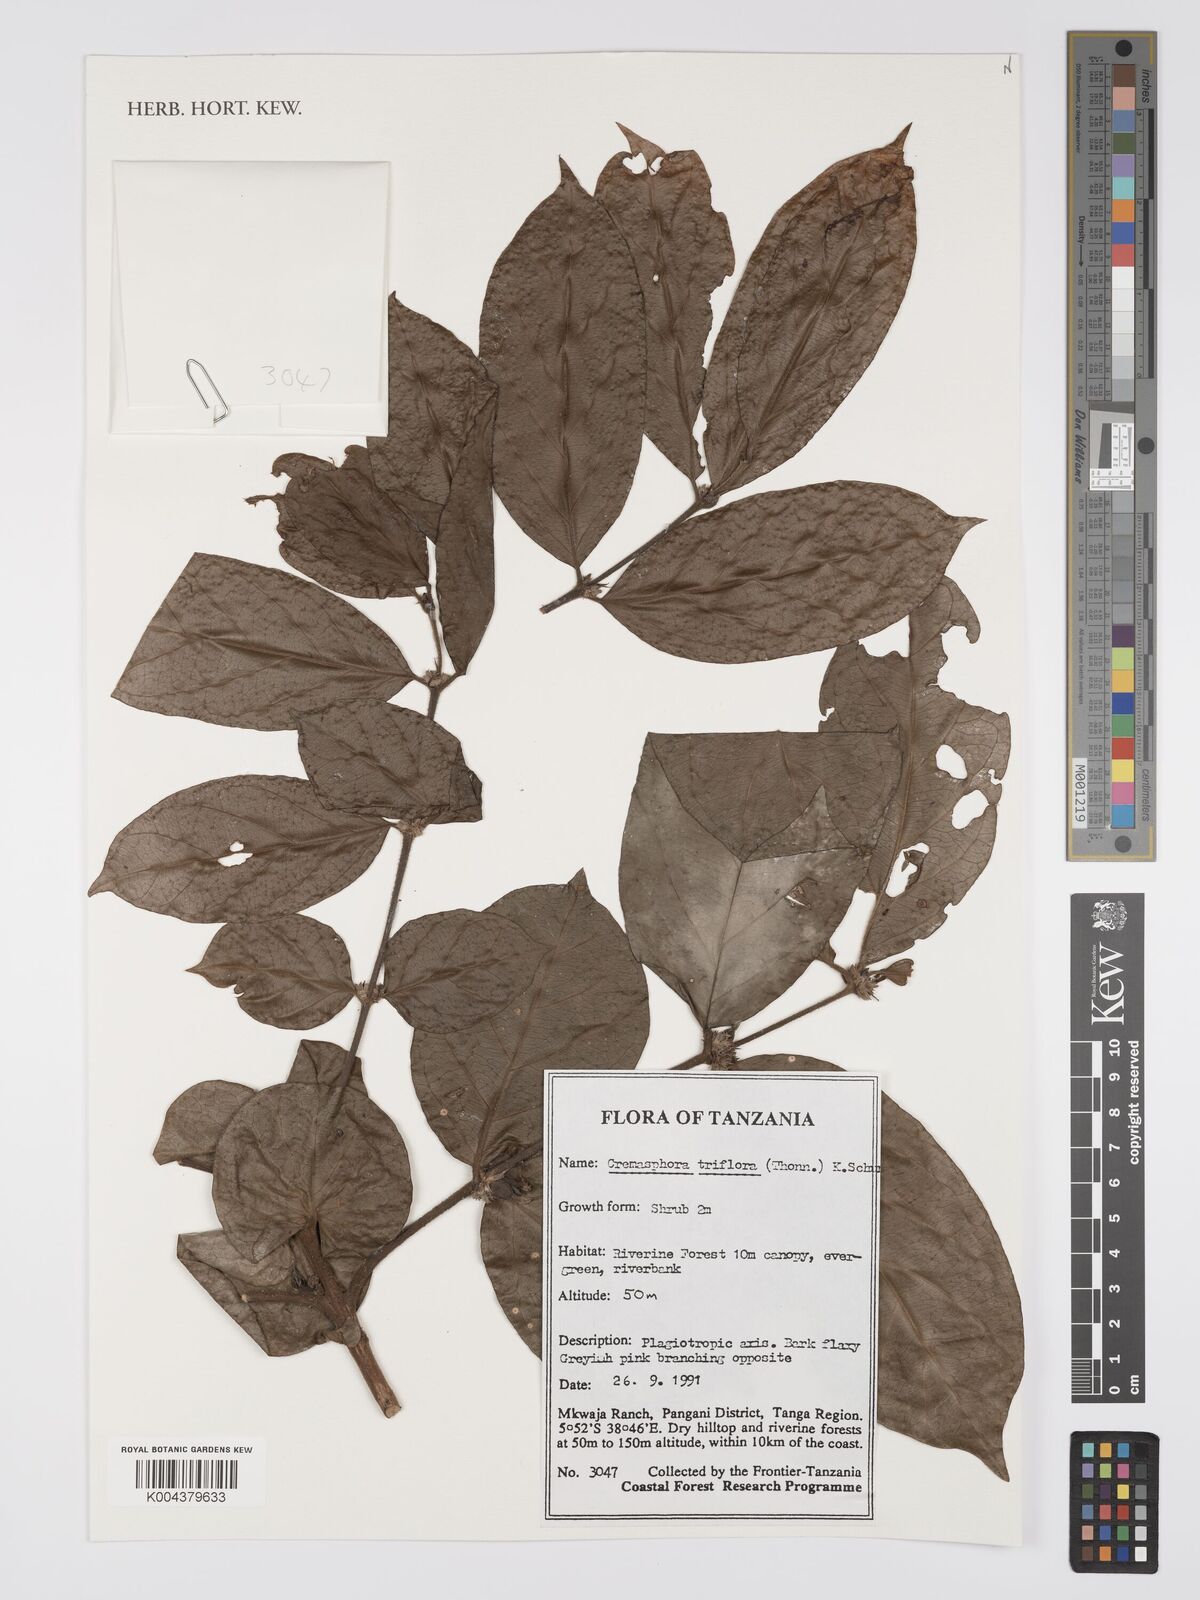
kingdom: Plantae
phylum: Tracheophyta
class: Magnoliopsida
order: Gentianales
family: Rubiaceae
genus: Cremaspora
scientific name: Cremaspora triflora
